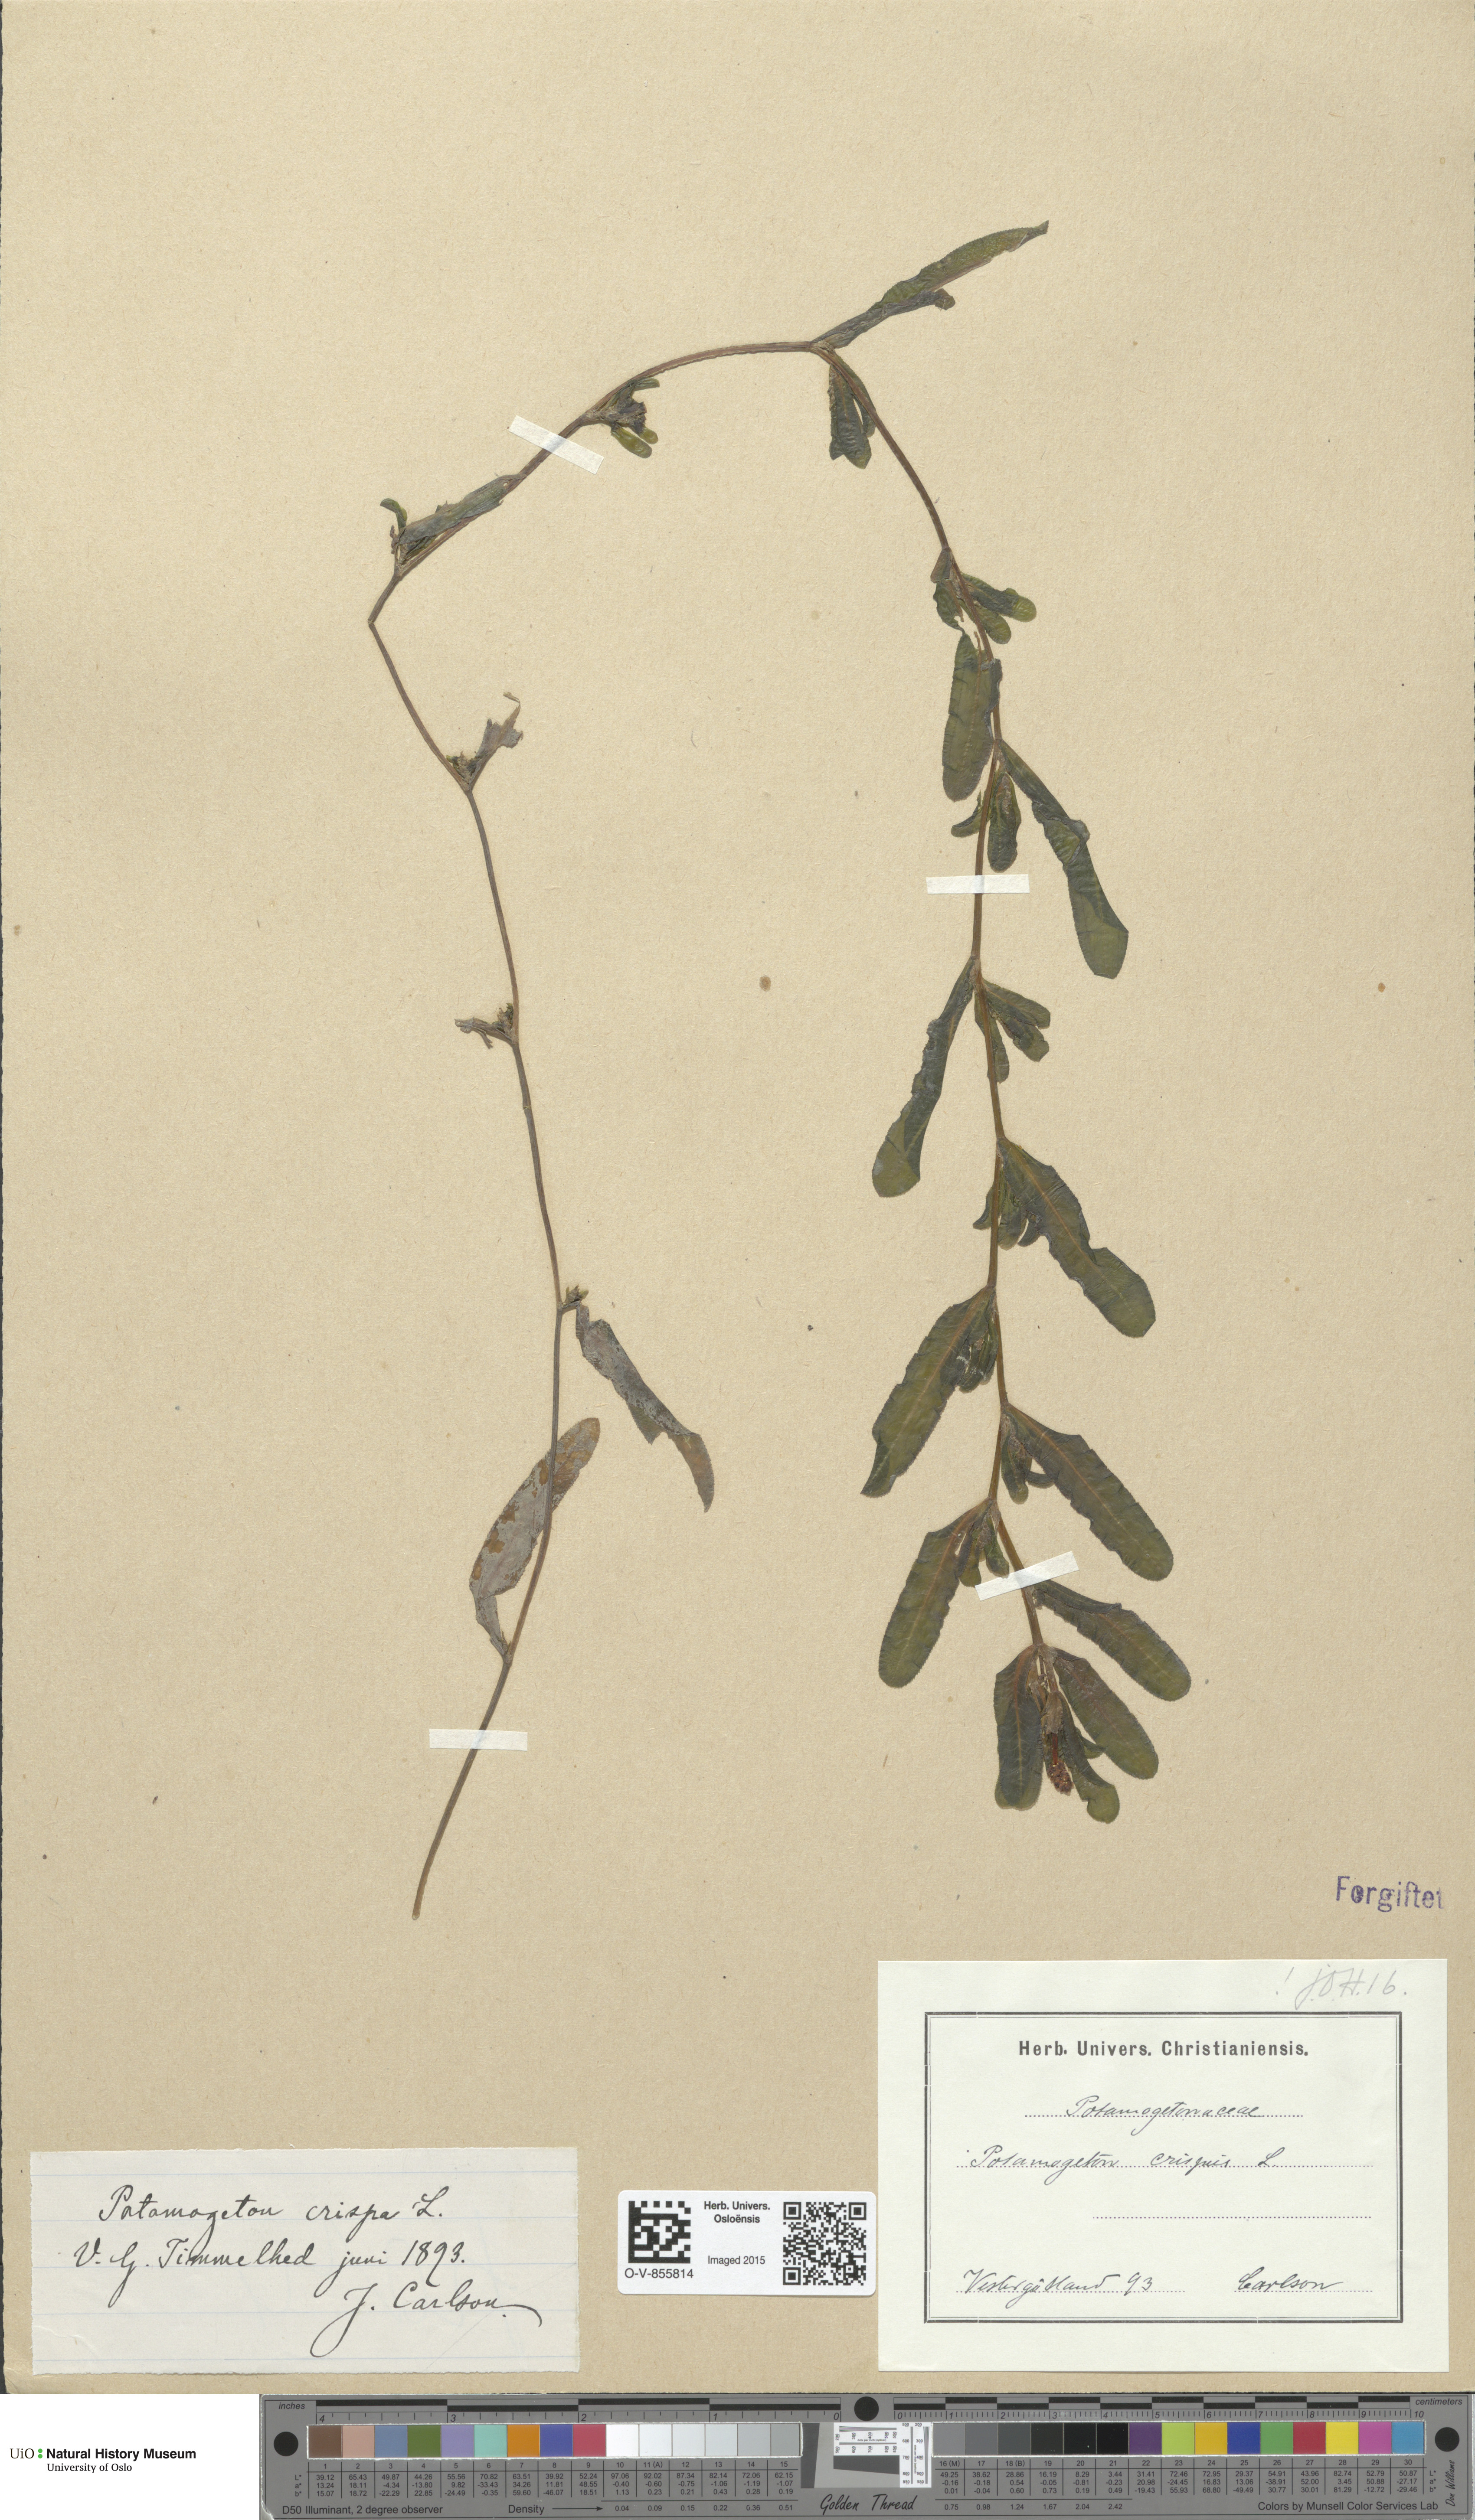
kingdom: Plantae
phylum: Tracheophyta
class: Liliopsida
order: Alismatales
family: Potamogetonaceae
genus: Potamogeton
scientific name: Potamogeton crispus
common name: Curled pondweed
